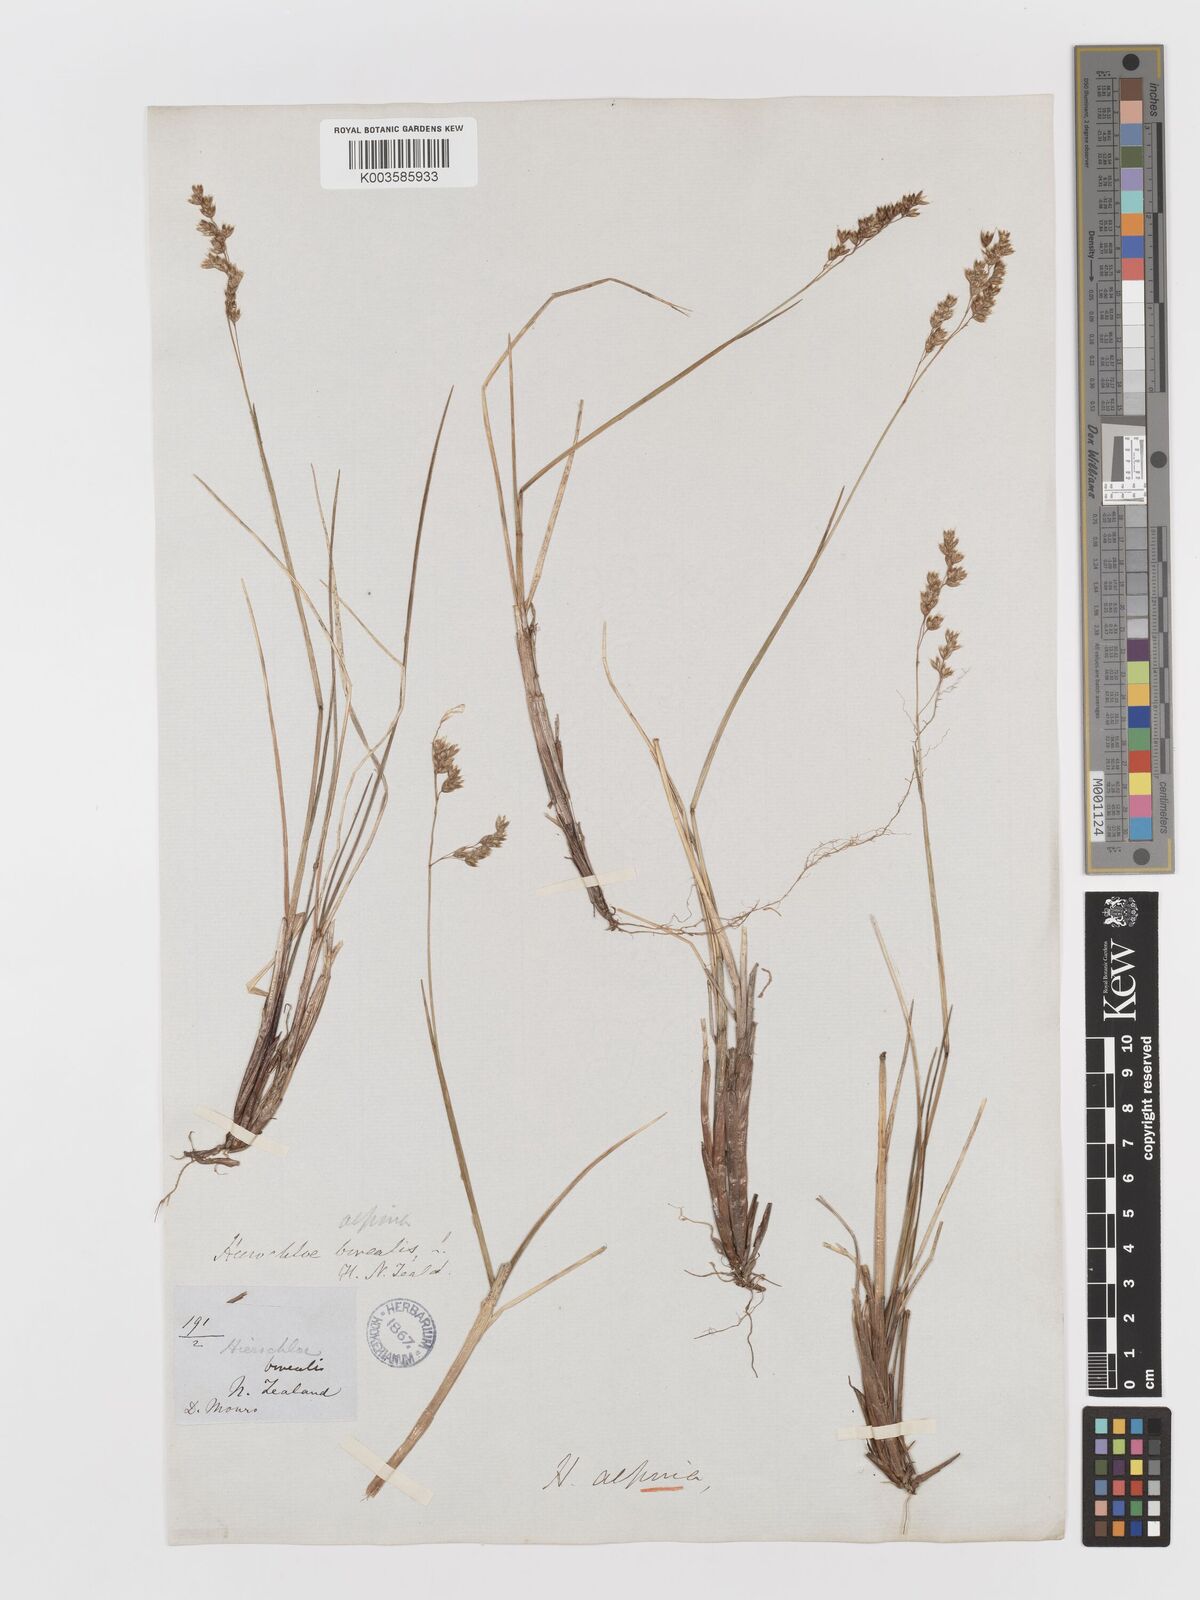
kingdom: Plantae
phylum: Tracheophyta
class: Liliopsida
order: Poales
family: Poaceae
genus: Anthoxanthum
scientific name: Anthoxanthum novae-zelandiae
